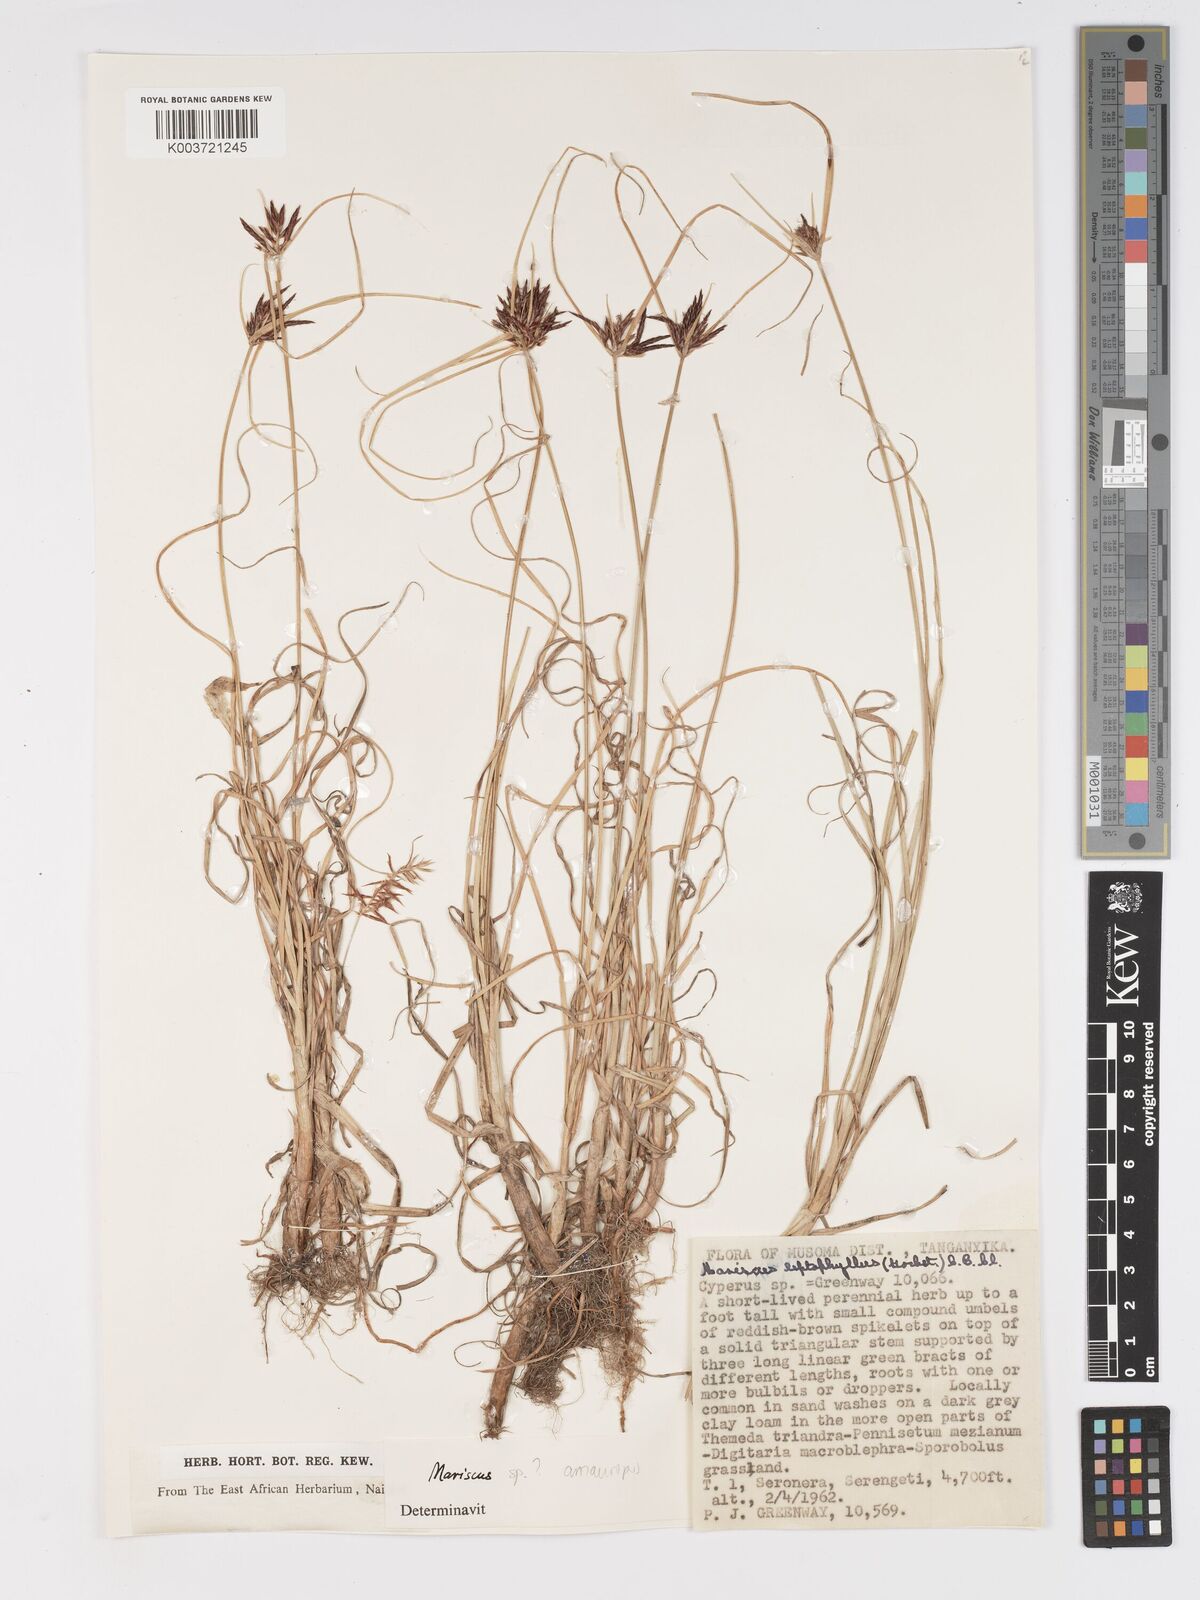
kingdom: Plantae
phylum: Tracheophyta
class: Liliopsida
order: Poales
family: Cyperaceae
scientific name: Cyperaceae
